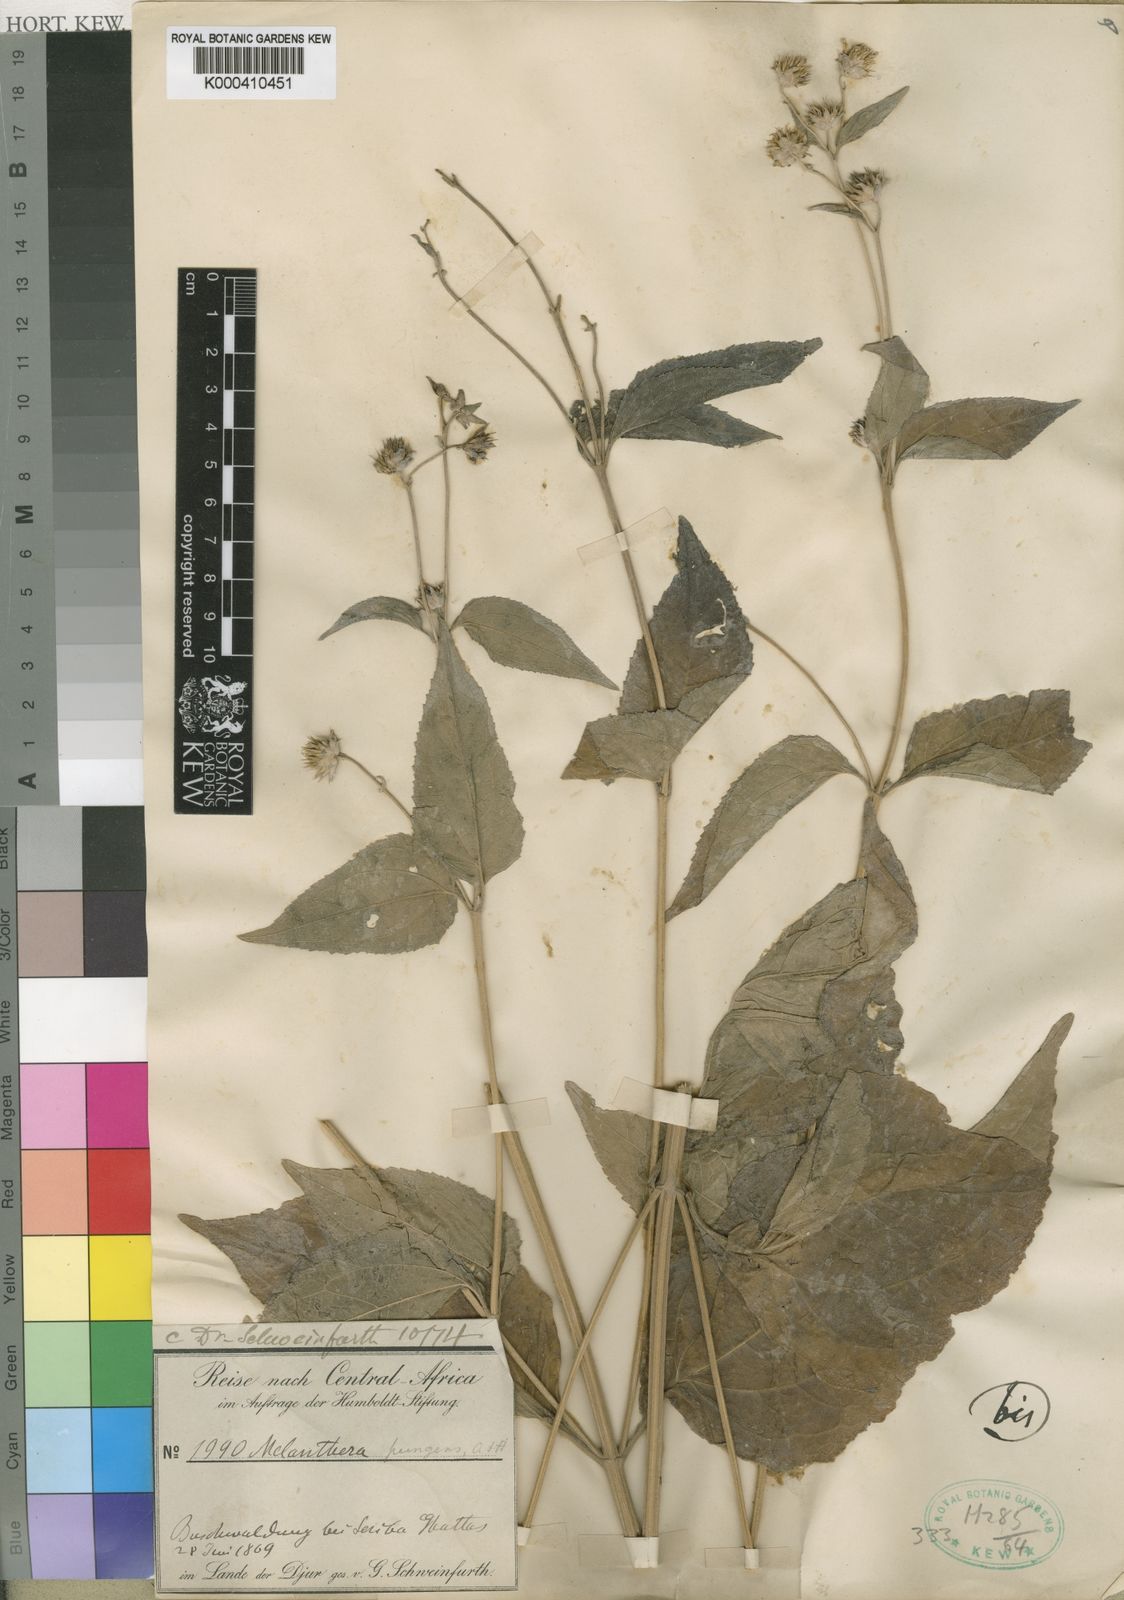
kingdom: Plantae
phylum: Tracheophyta
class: Magnoliopsida
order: Asterales
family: Asteraceae
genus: Lipotriche
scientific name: Lipotriche pungens
